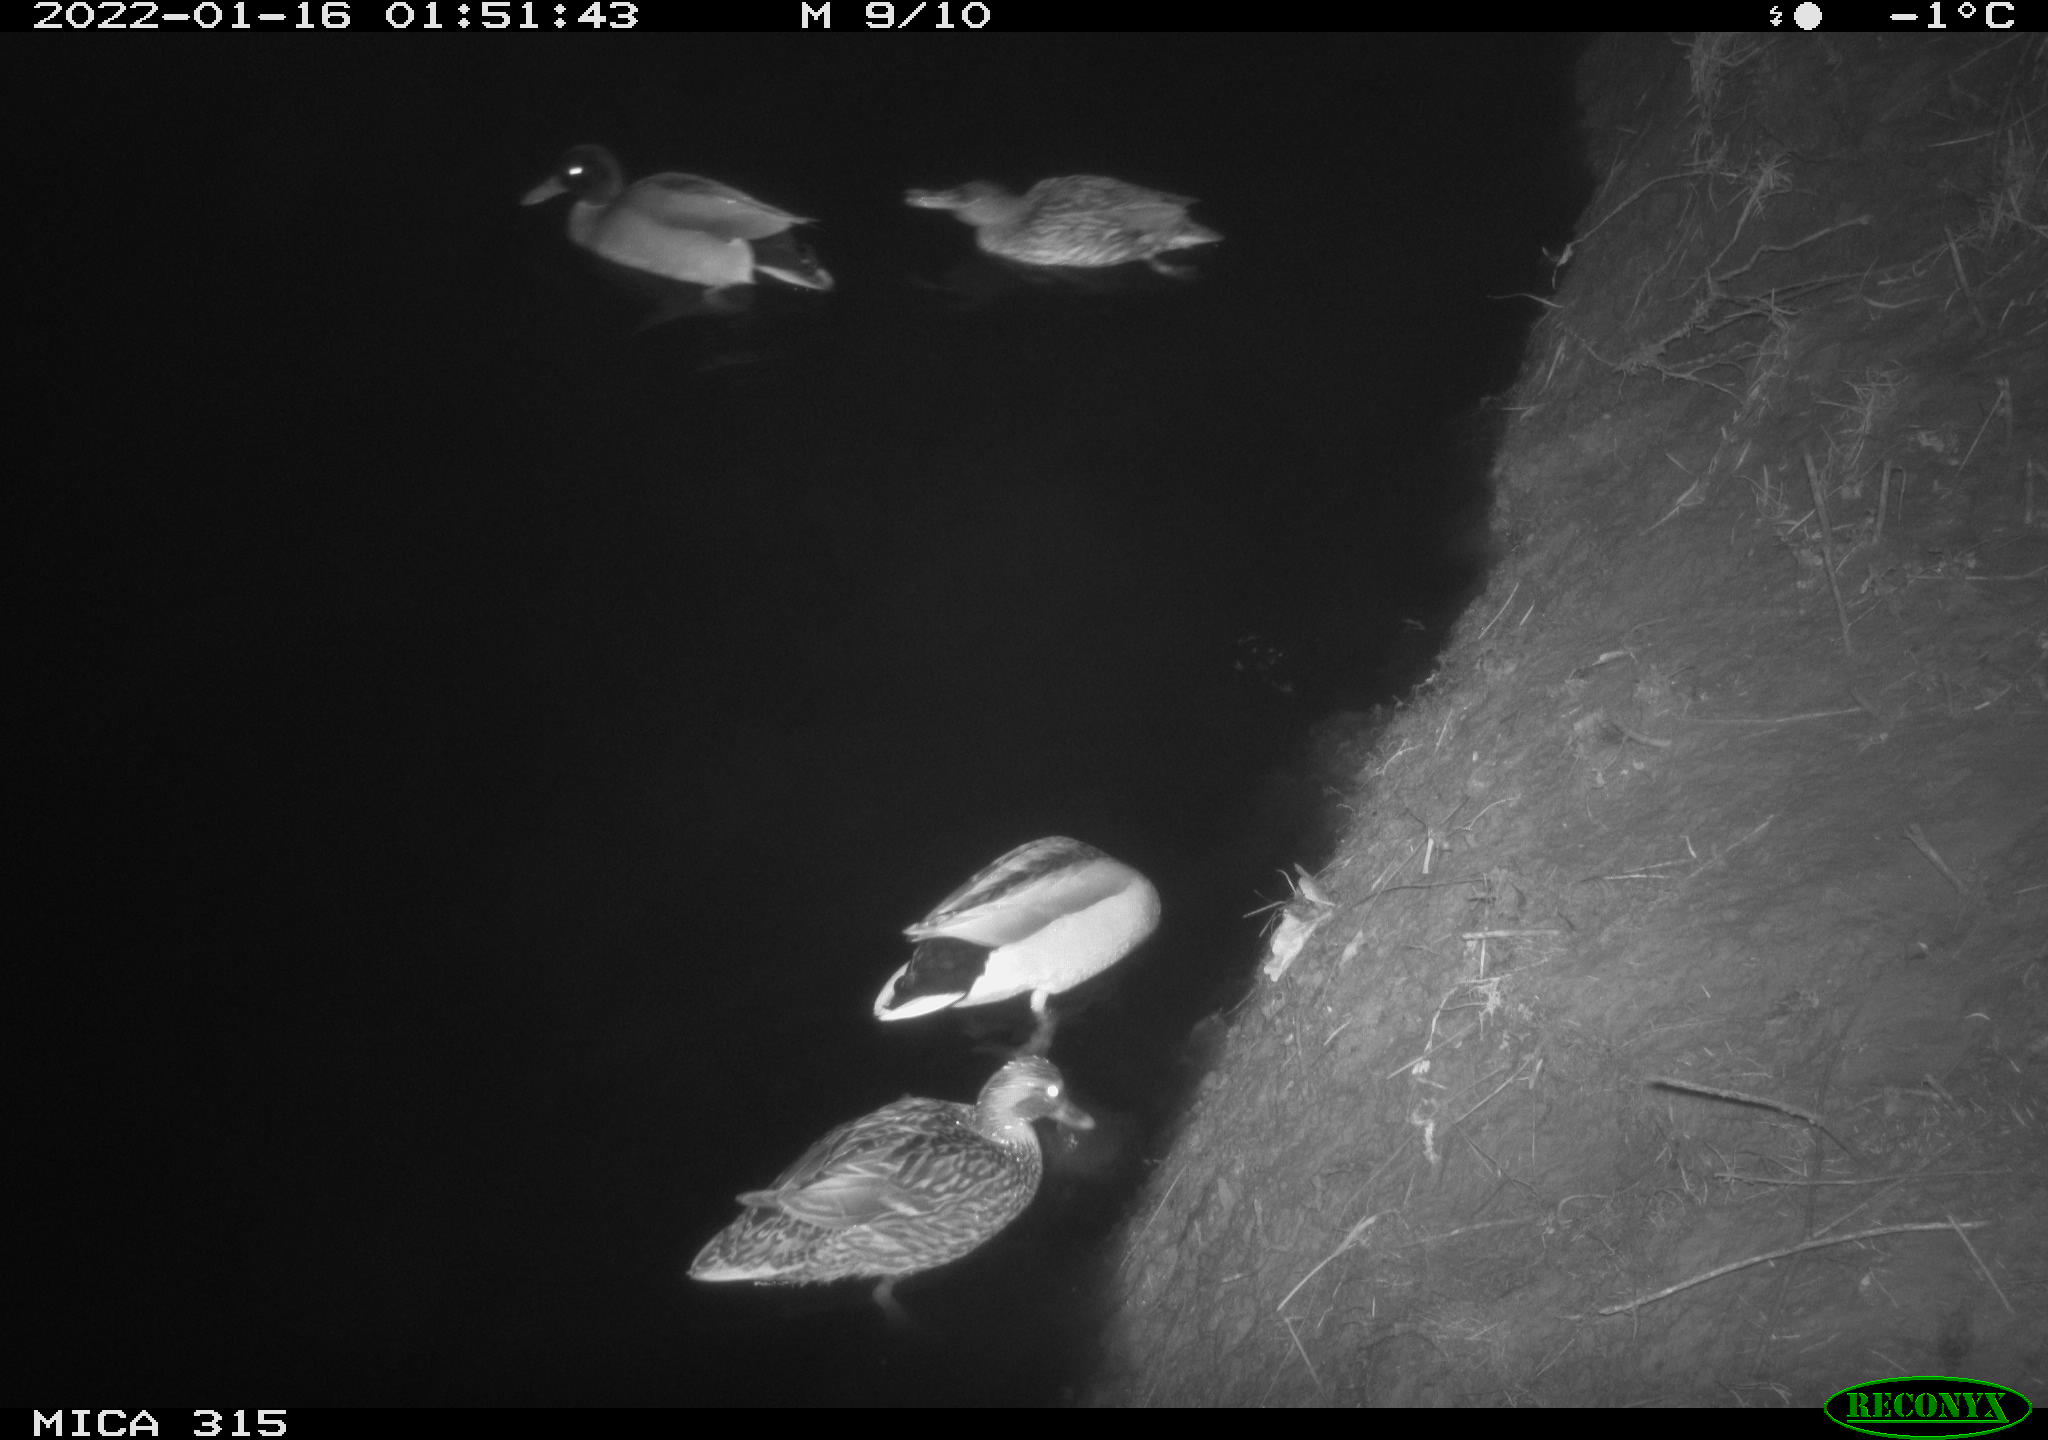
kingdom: Animalia
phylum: Chordata
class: Aves
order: Anseriformes
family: Anatidae
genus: Anas
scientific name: Anas
